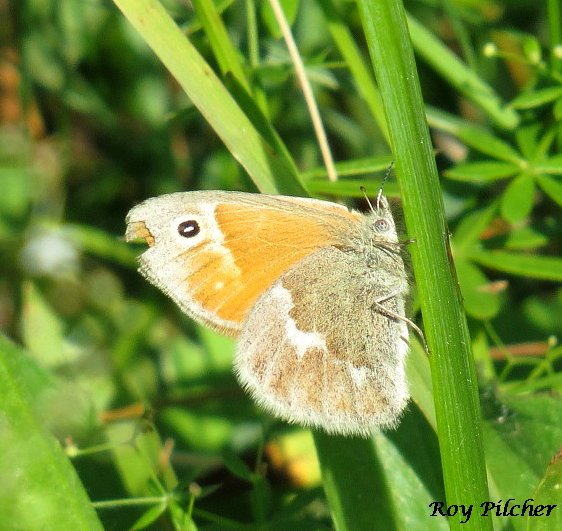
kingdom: Animalia
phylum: Arthropoda
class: Insecta
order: Lepidoptera
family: Nymphalidae
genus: Coenonympha
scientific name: Coenonympha tullia
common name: Large Heath
